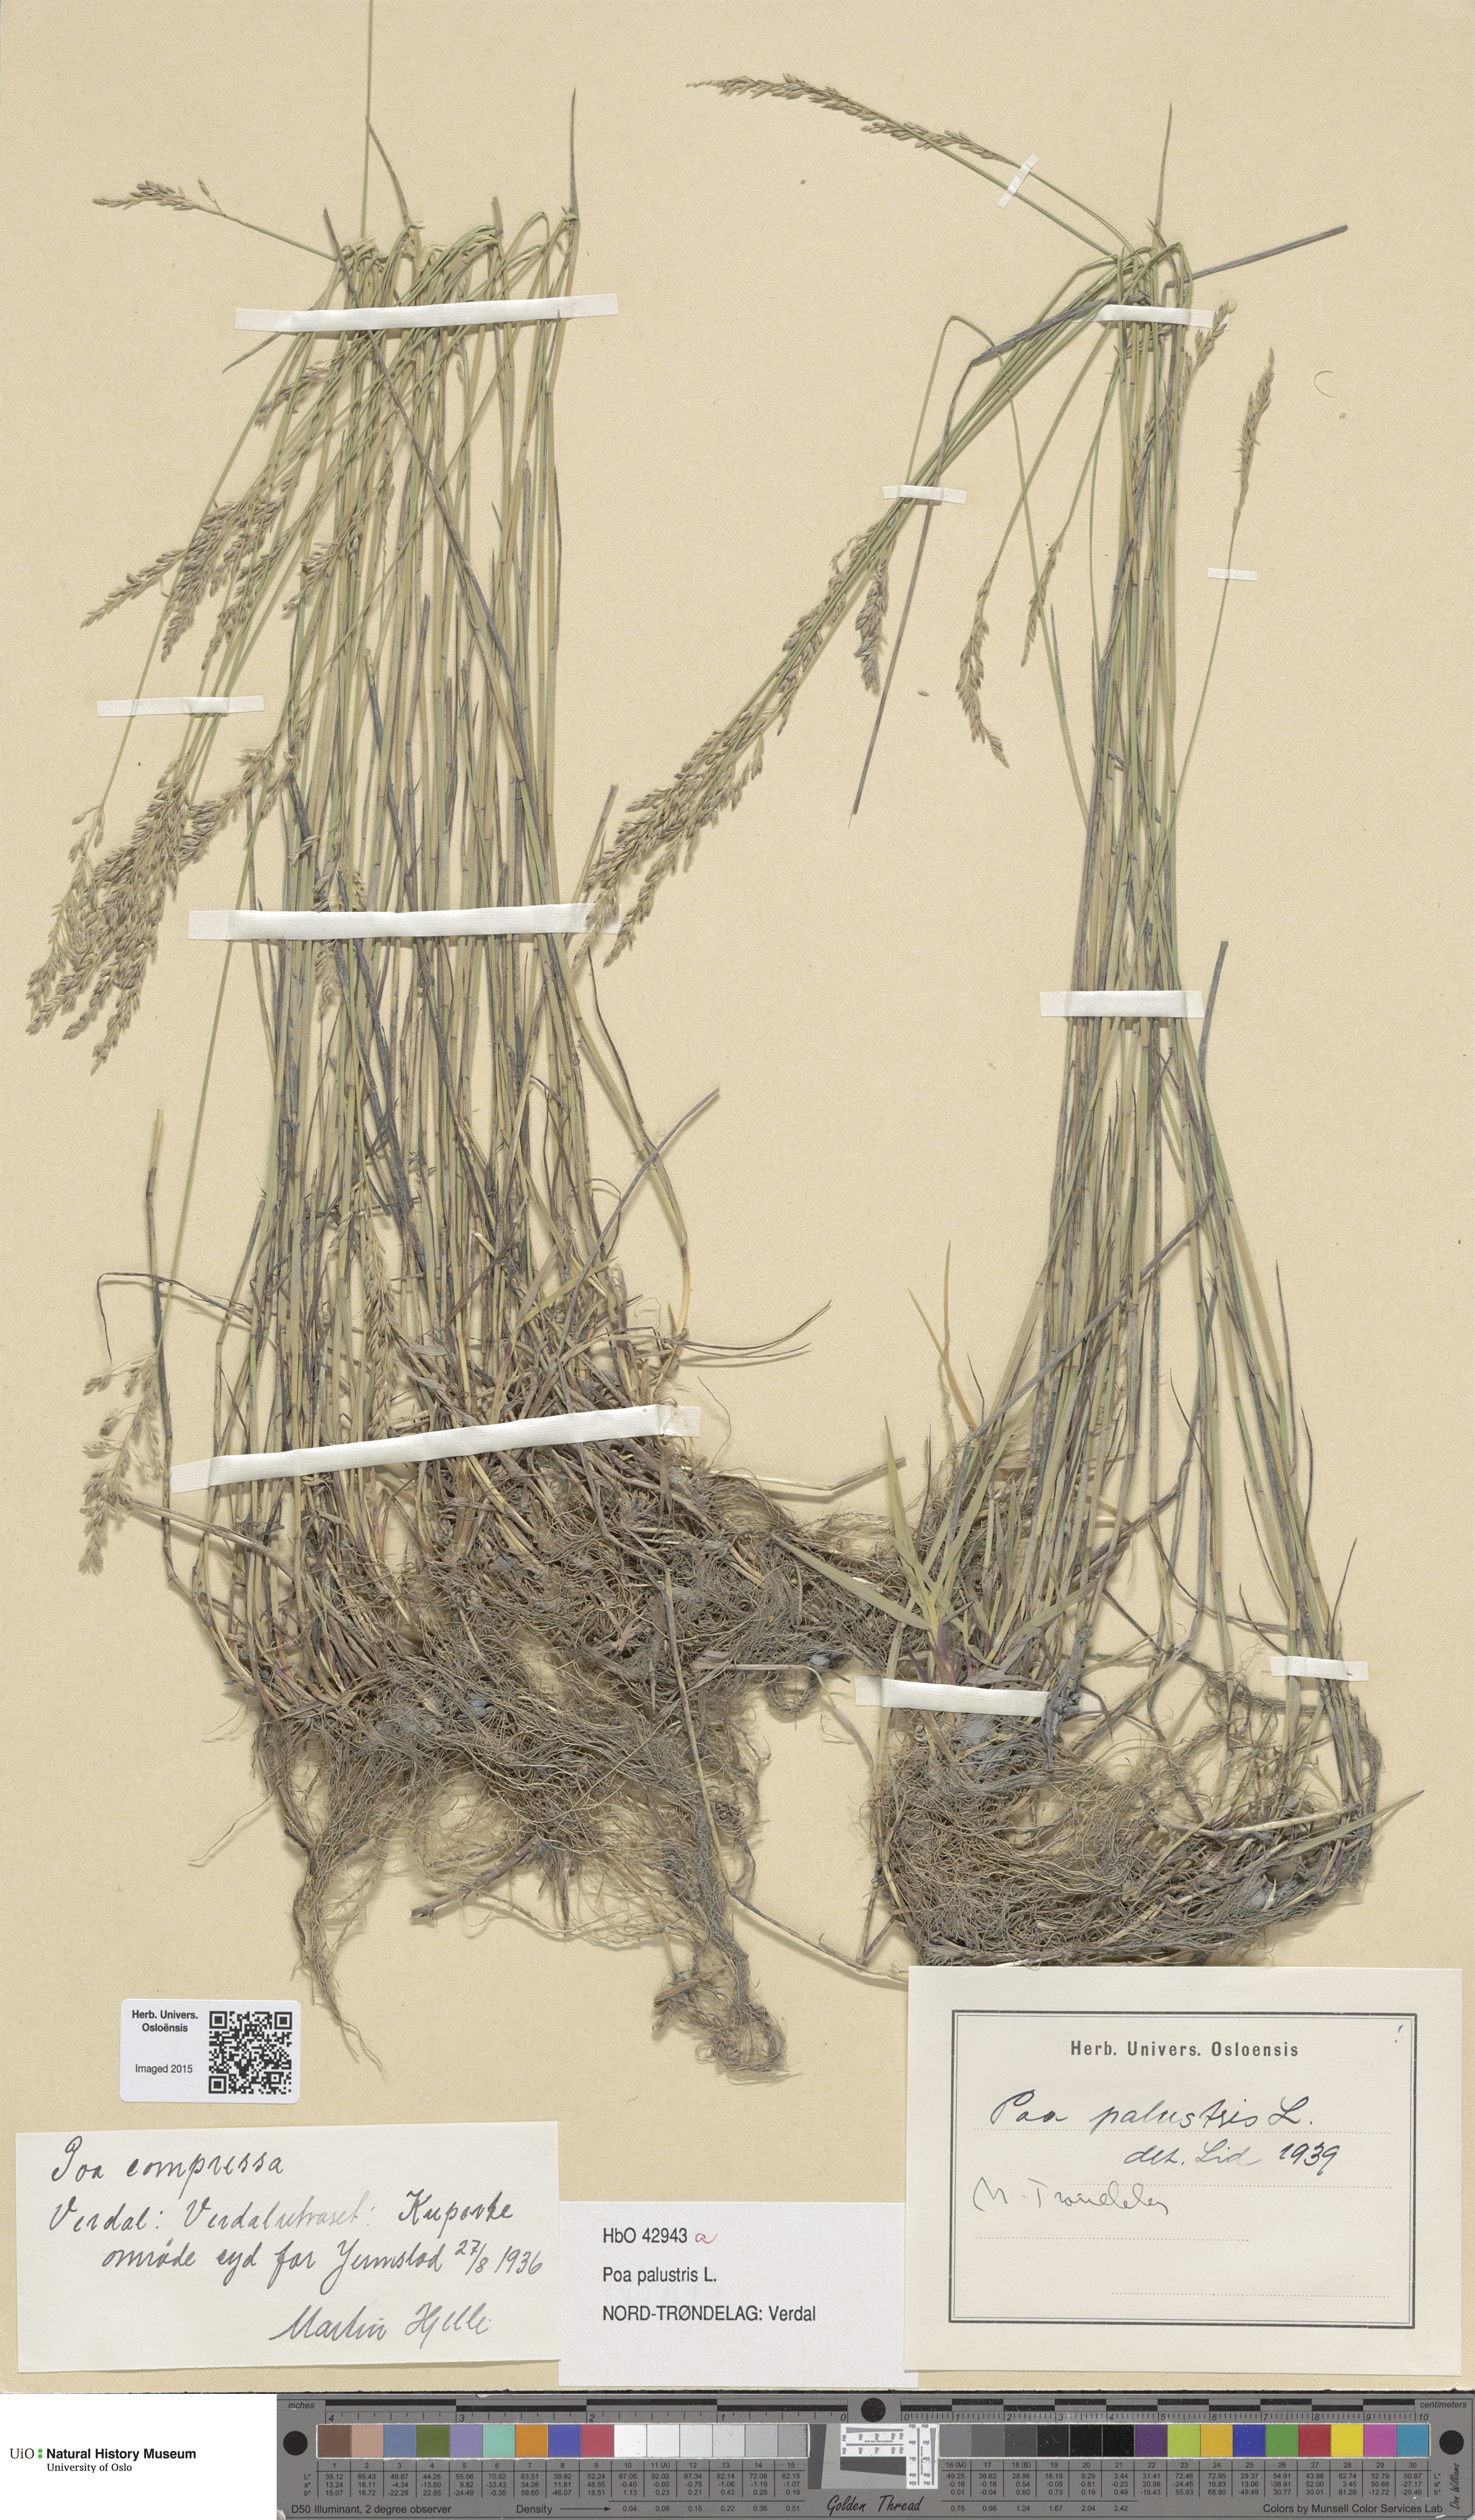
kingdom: Plantae
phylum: Tracheophyta
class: Liliopsida
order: Poales
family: Poaceae
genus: Poa
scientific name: Poa palustris
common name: Swamp meadow-grass
